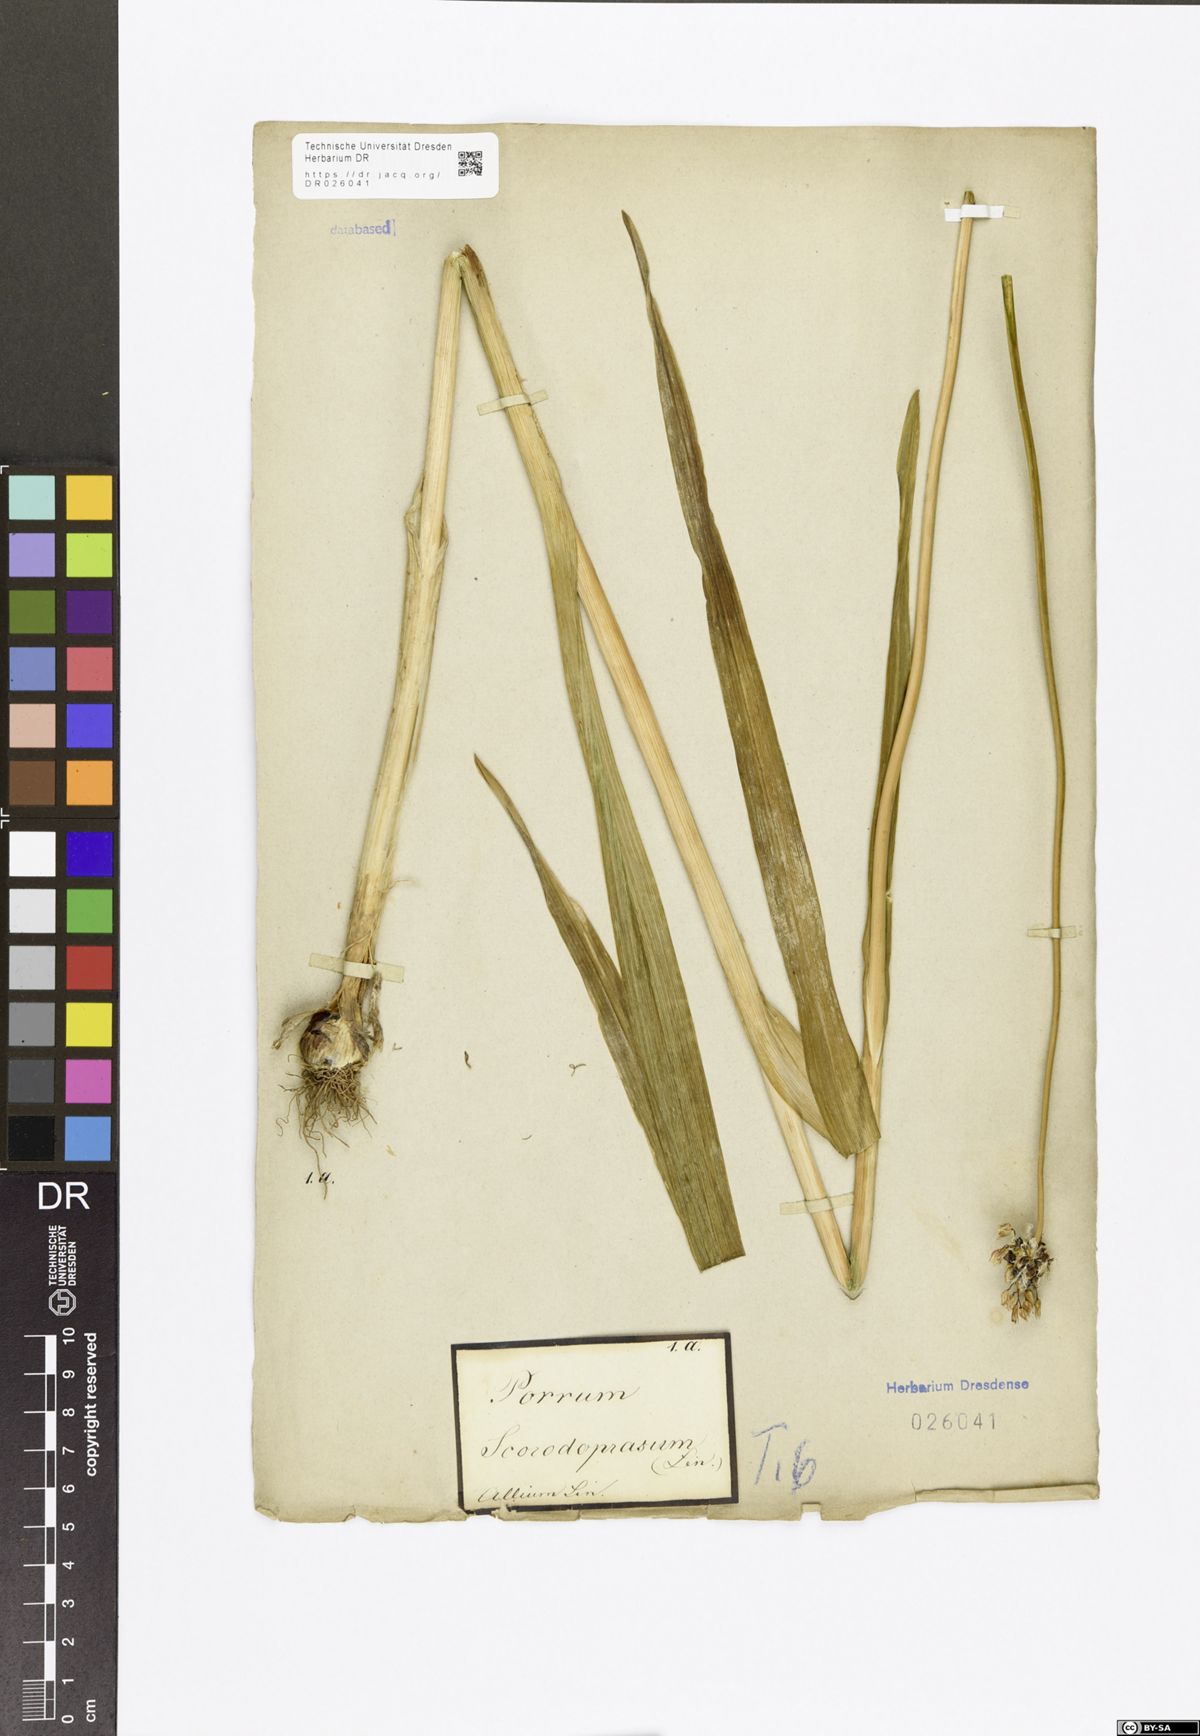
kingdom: Plantae
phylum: Tracheophyta
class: Liliopsida
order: Asparagales
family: Amaryllidaceae
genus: Allium
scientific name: Allium scorodoprasum
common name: Sand leek
